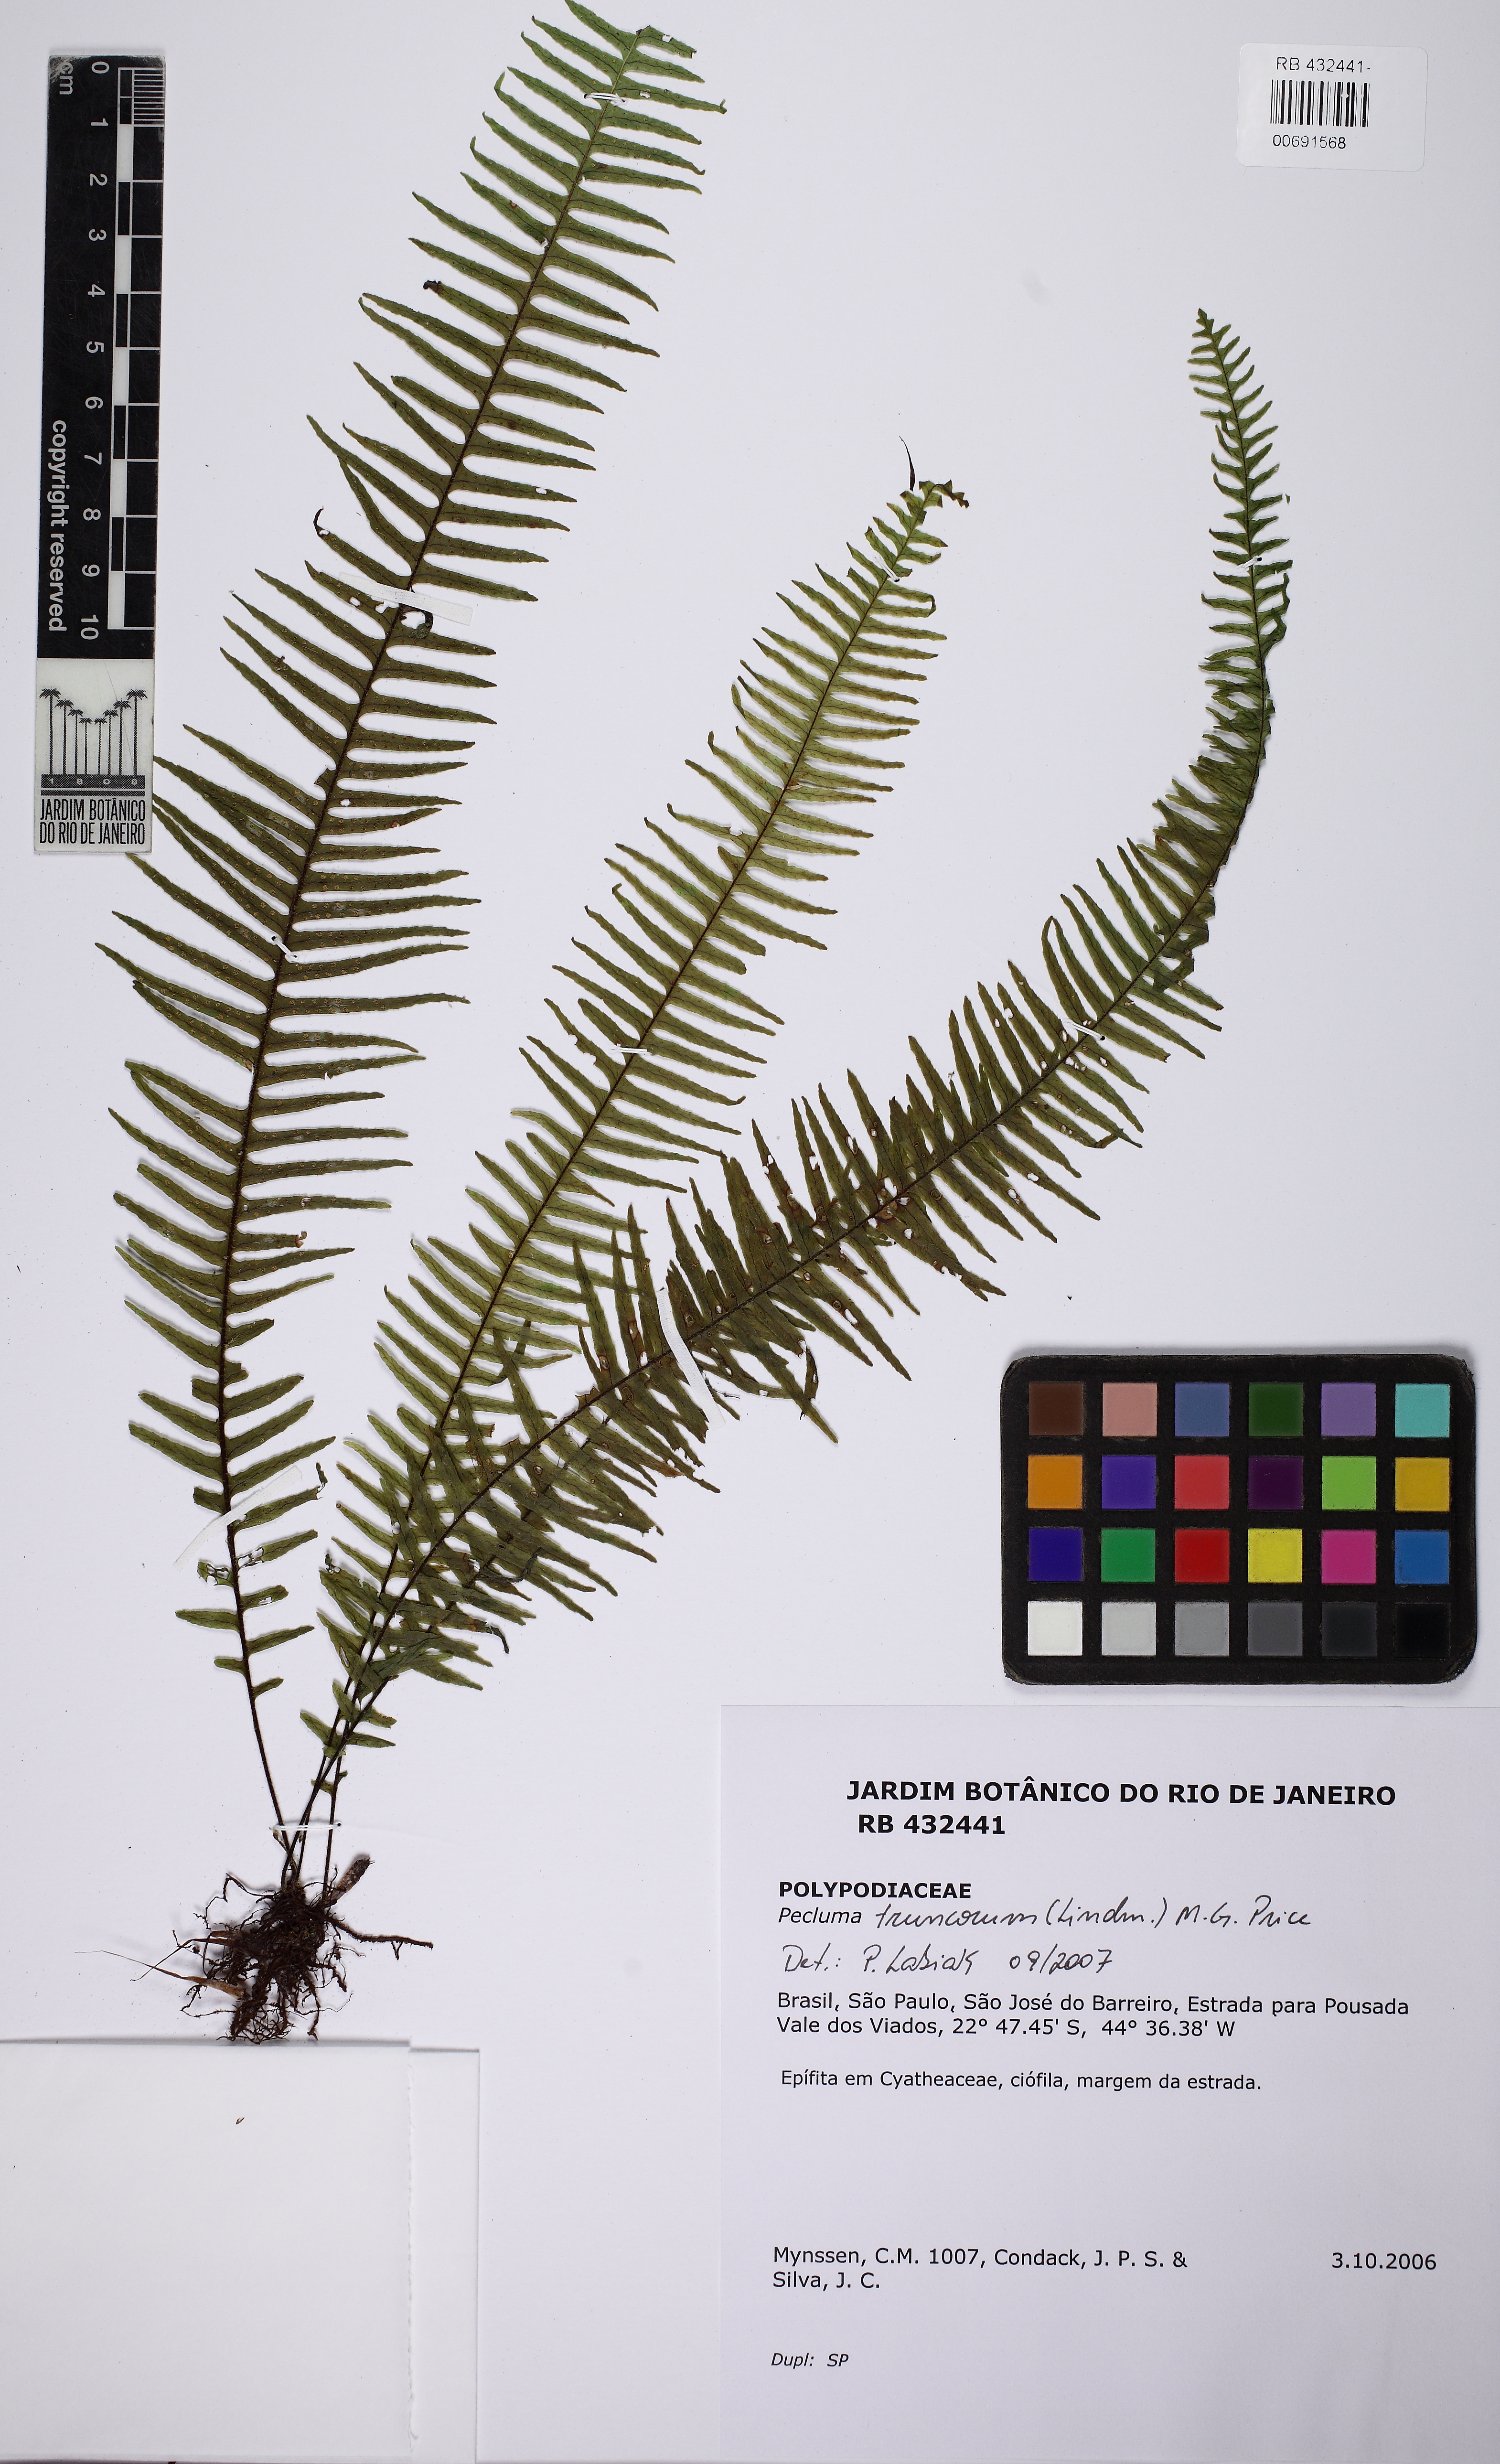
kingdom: Plantae
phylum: Tracheophyta
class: Polypodiopsida
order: Polypodiales
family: Polypodiaceae
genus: Pecluma
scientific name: Pecluma truncorum
